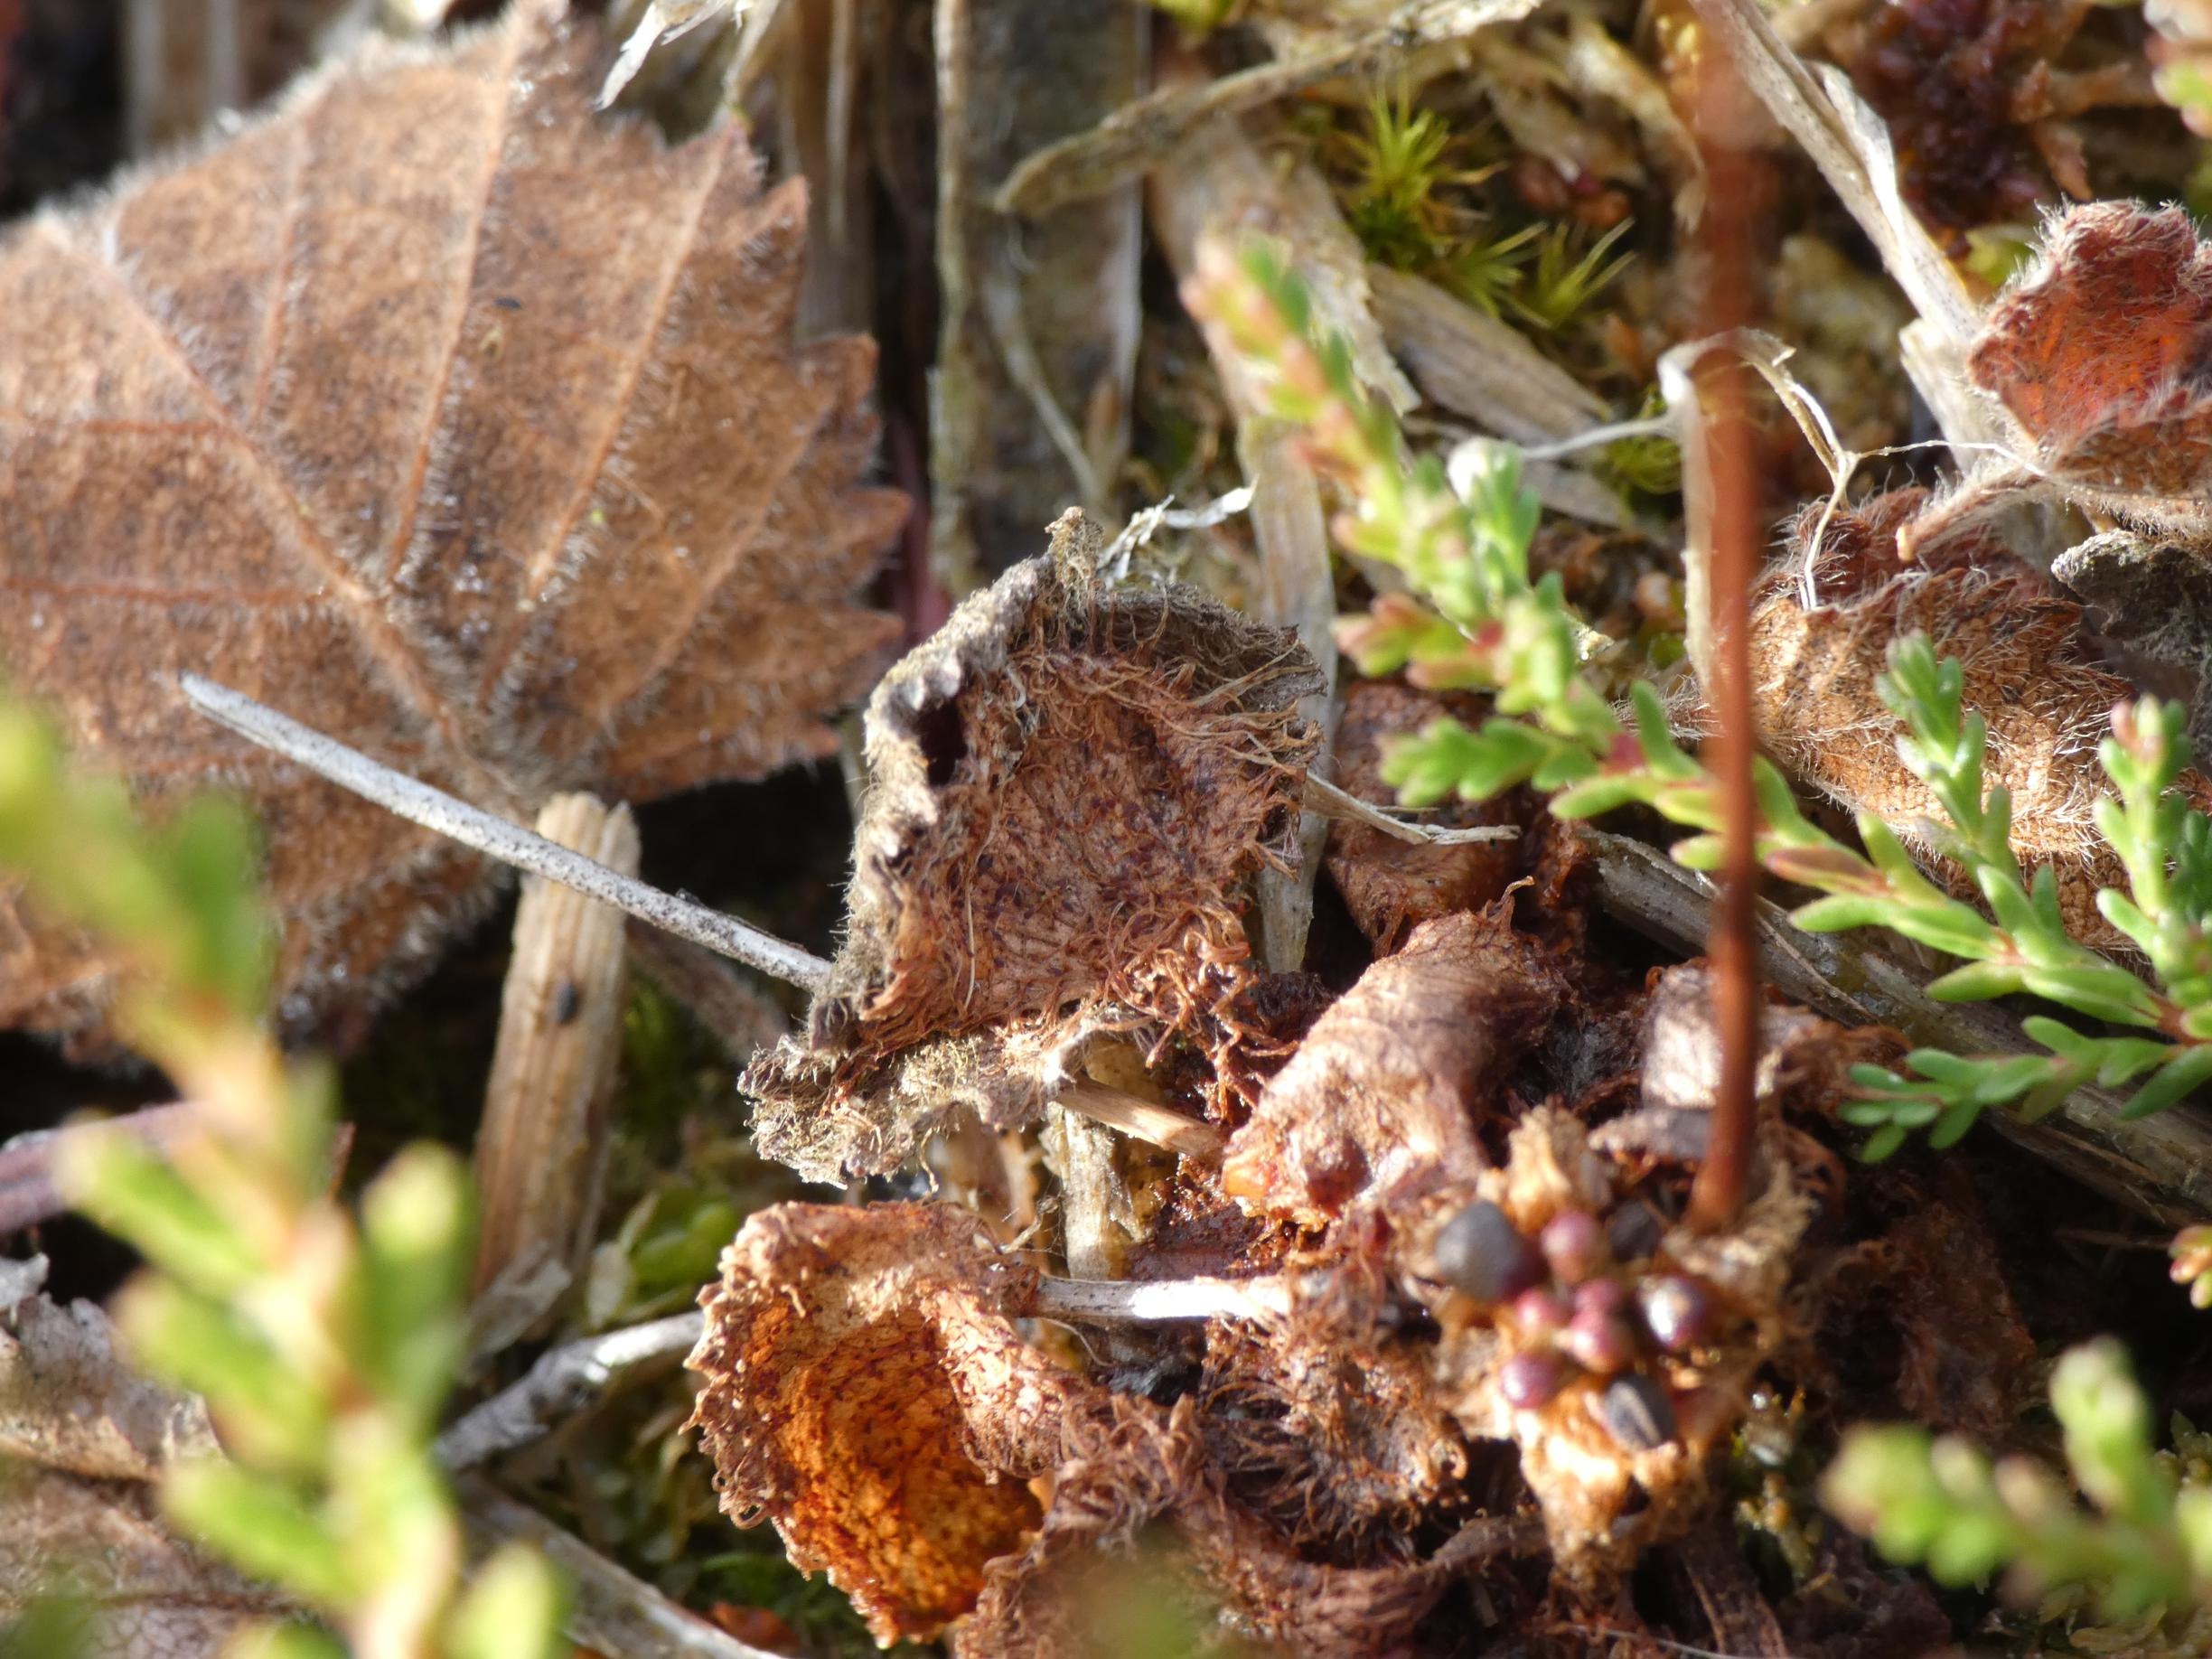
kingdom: Plantae
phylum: Tracheophyta
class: Magnoliopsida
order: Caryophyllales
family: Droseraceae
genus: Drosera
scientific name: Drosera rotundifolia
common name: Rundbladet soldug
